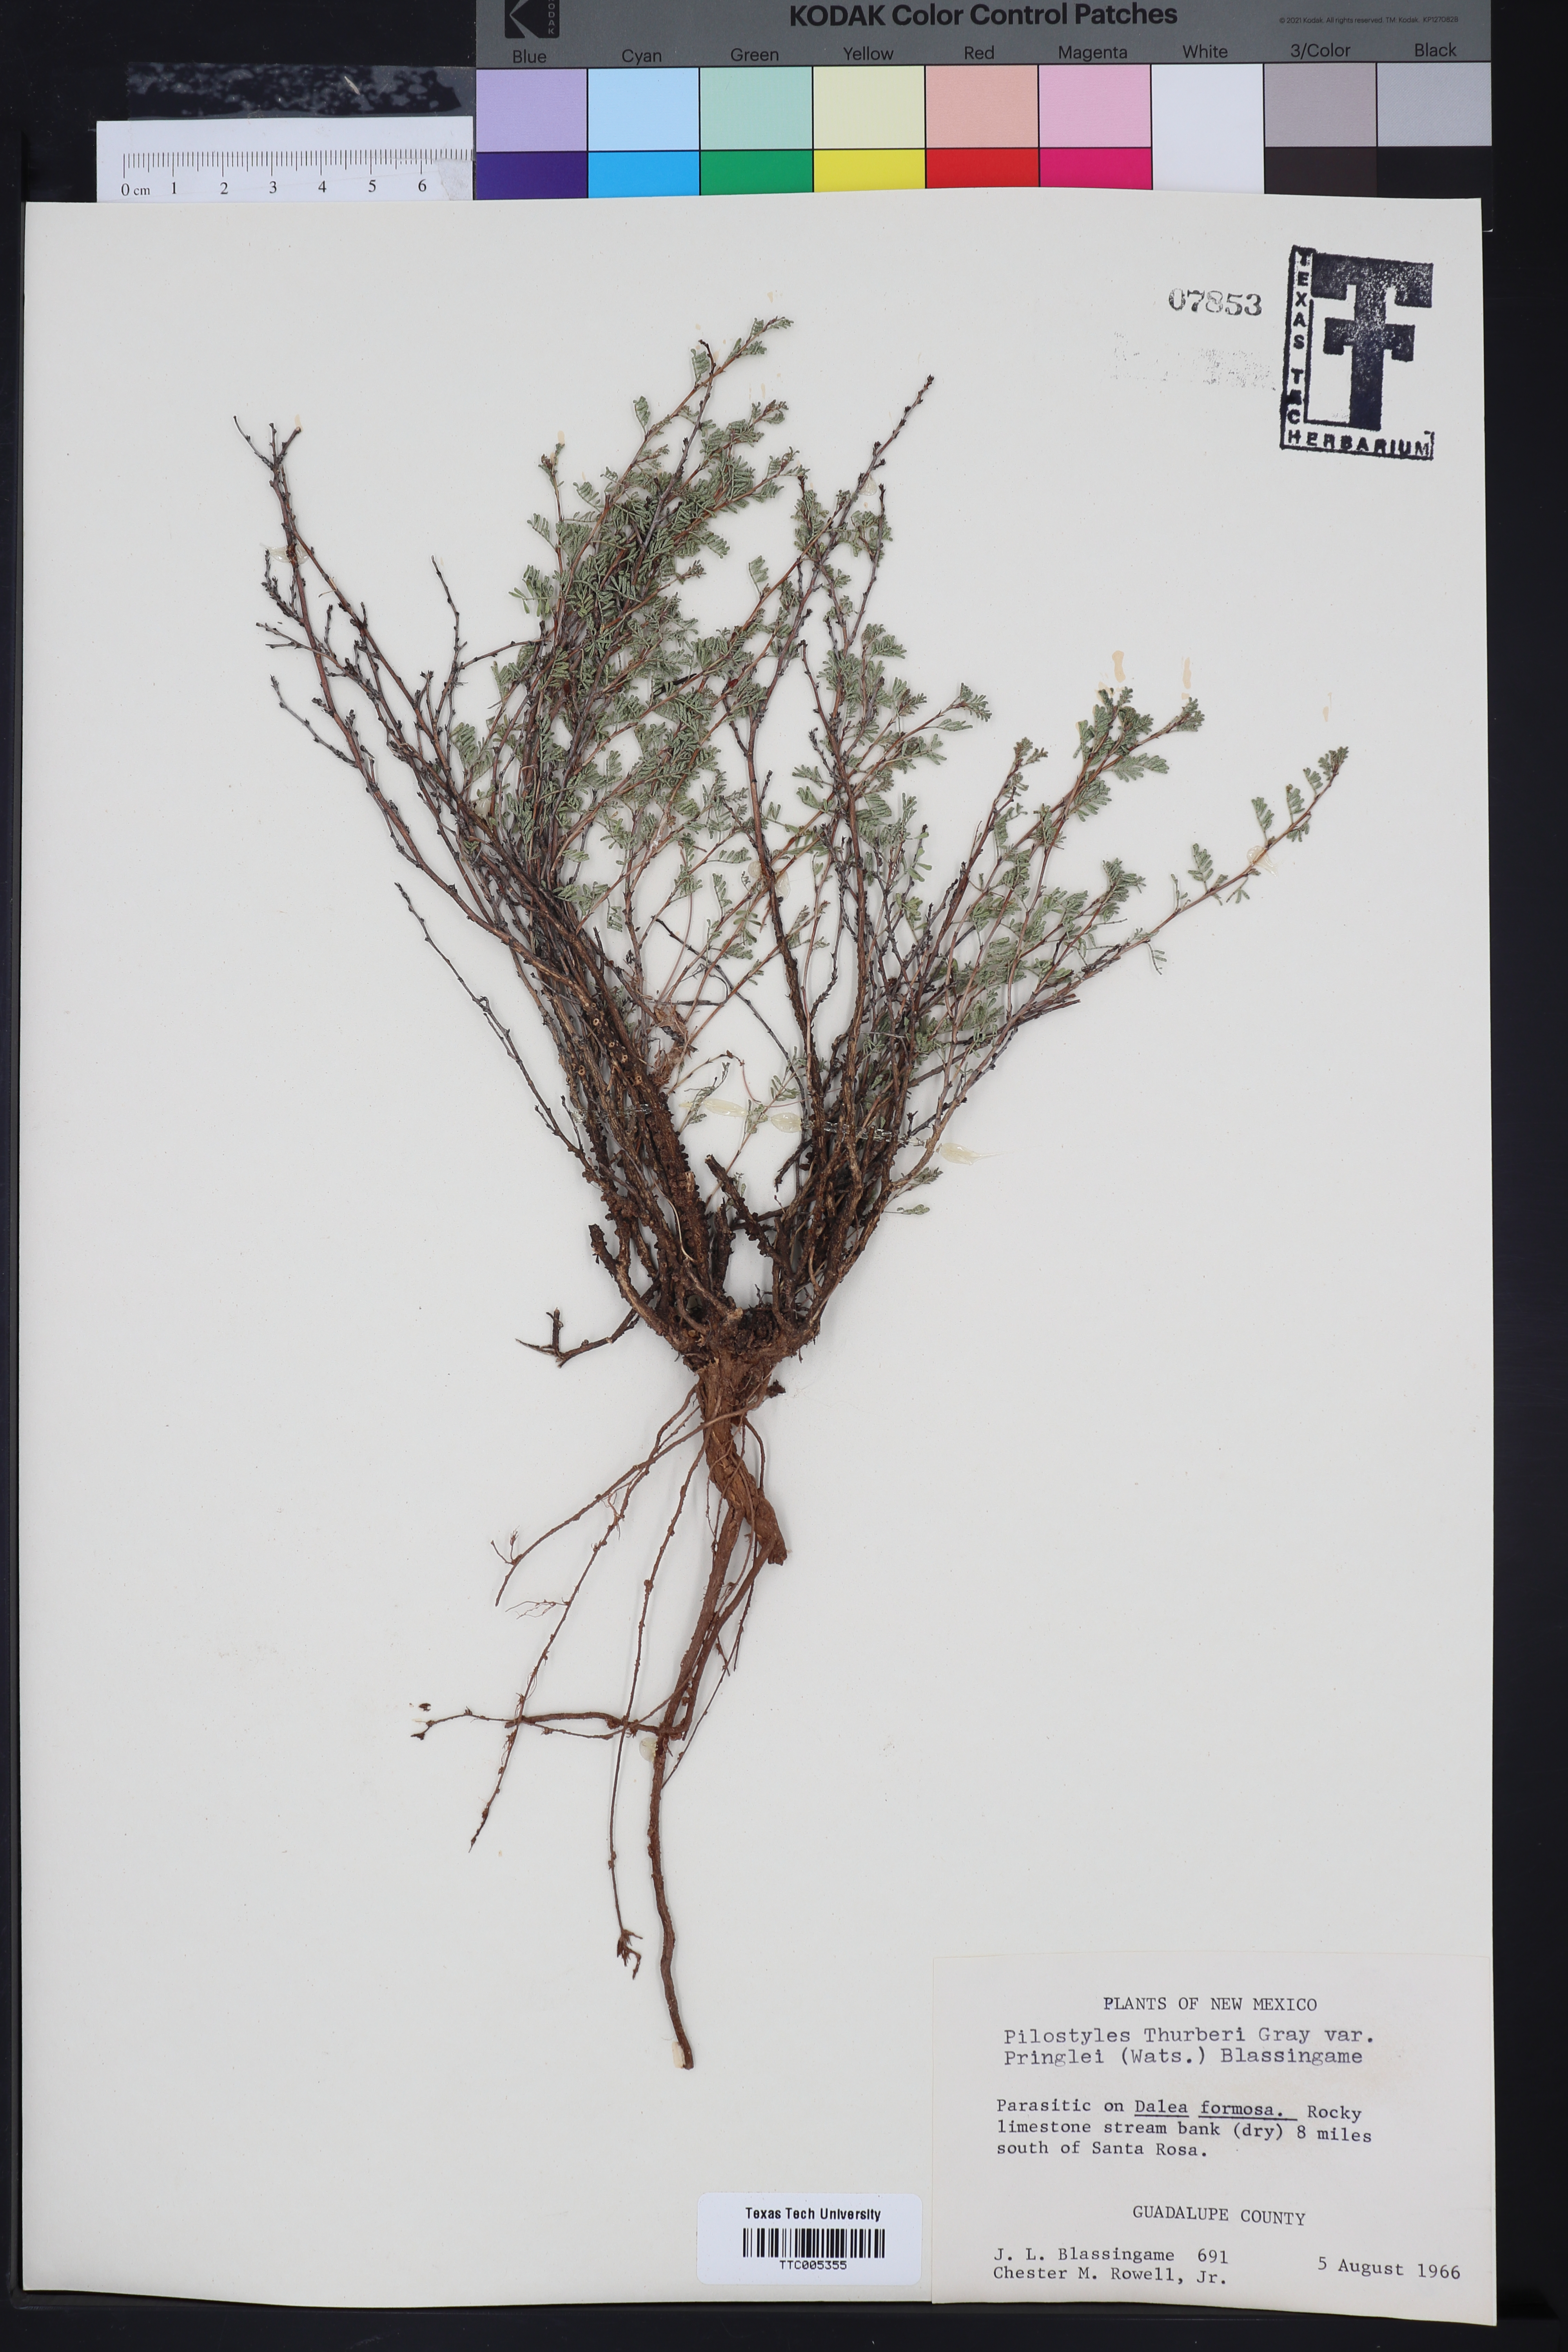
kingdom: Plantae
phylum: Tracheophyta
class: Magnoliopsida
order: Cucurbitales
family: Apodanthaceae
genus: Pilostyles
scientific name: Pilostyles thurberi
